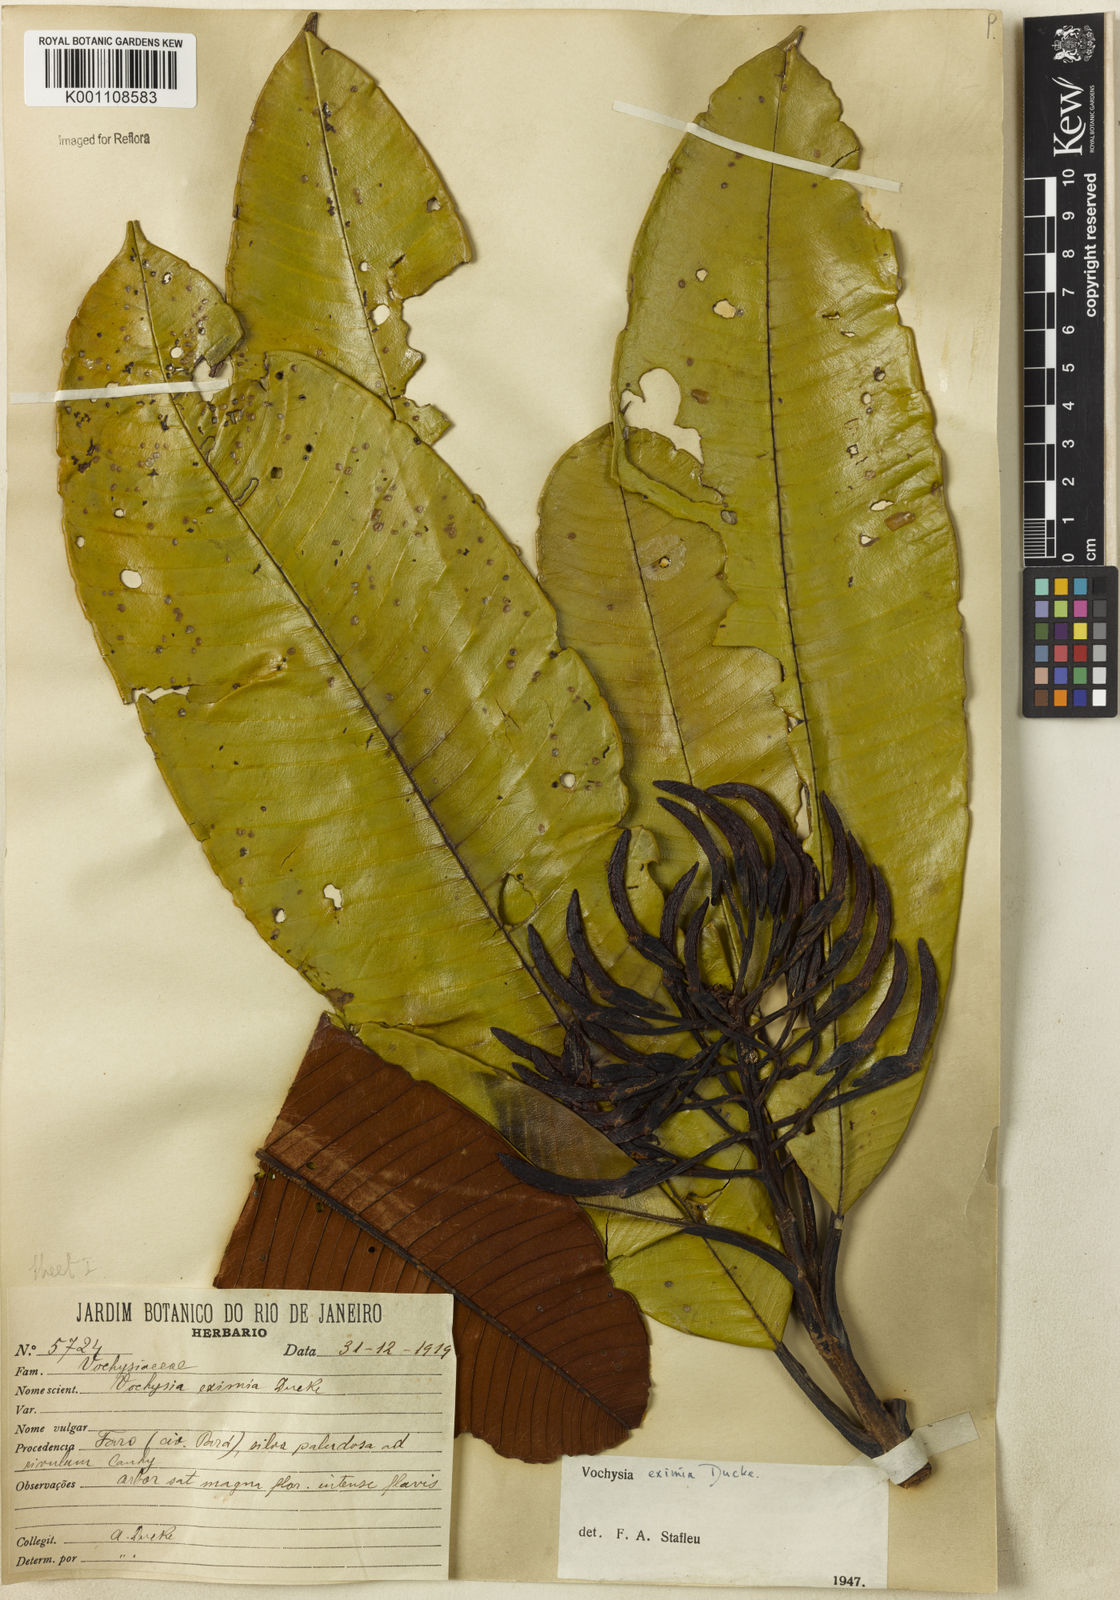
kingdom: Plantae
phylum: Tracheophyta
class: Magnoliopsida
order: Myrtales
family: Vochysiaceae
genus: Vochysia
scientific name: Vochysia eximia
